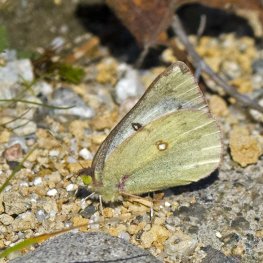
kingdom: Animalia
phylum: Arthropoda
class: Insecta
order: Lepidoptera
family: Pieridae
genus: Colias
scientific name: Colias philodice
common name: Clouded Sulphur
